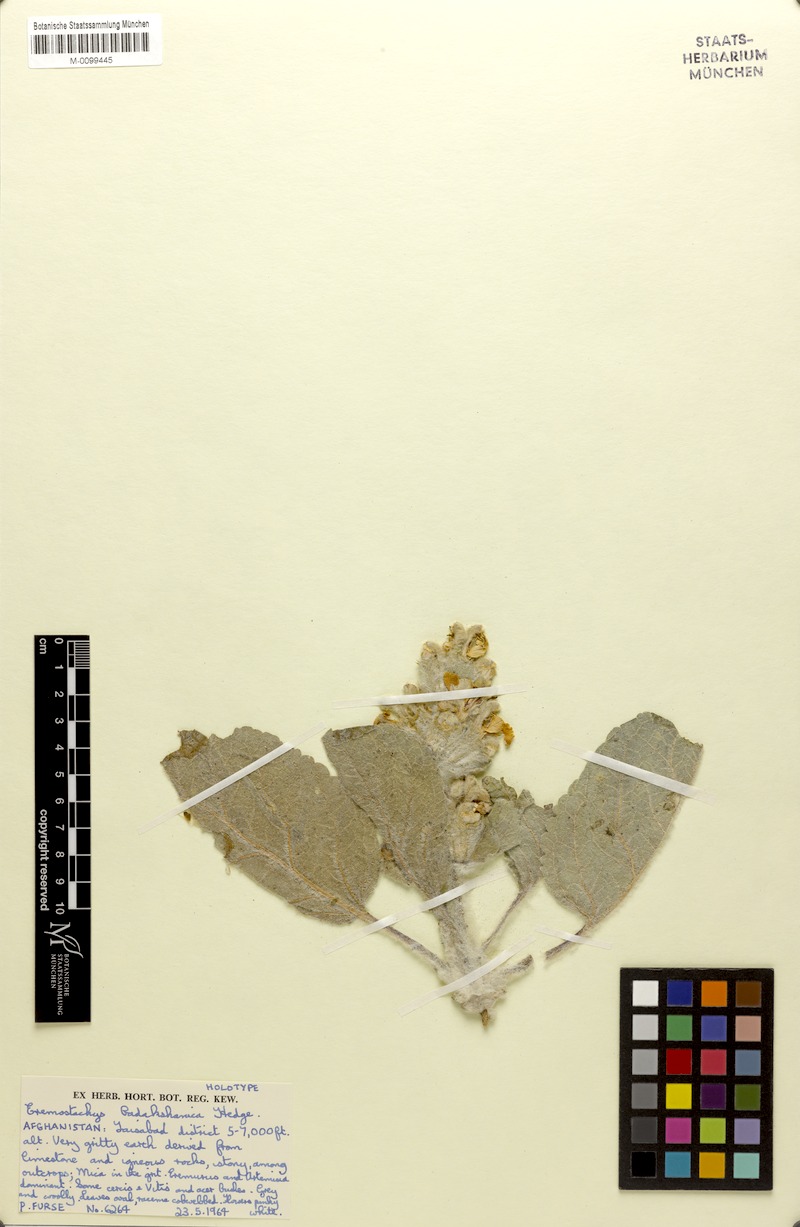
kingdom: Plantae
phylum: Tracheophyta
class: Magnoliopsida
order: Lamiales
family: Lamiaceae
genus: Phlomoides
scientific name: Phlomoides badakshanica
